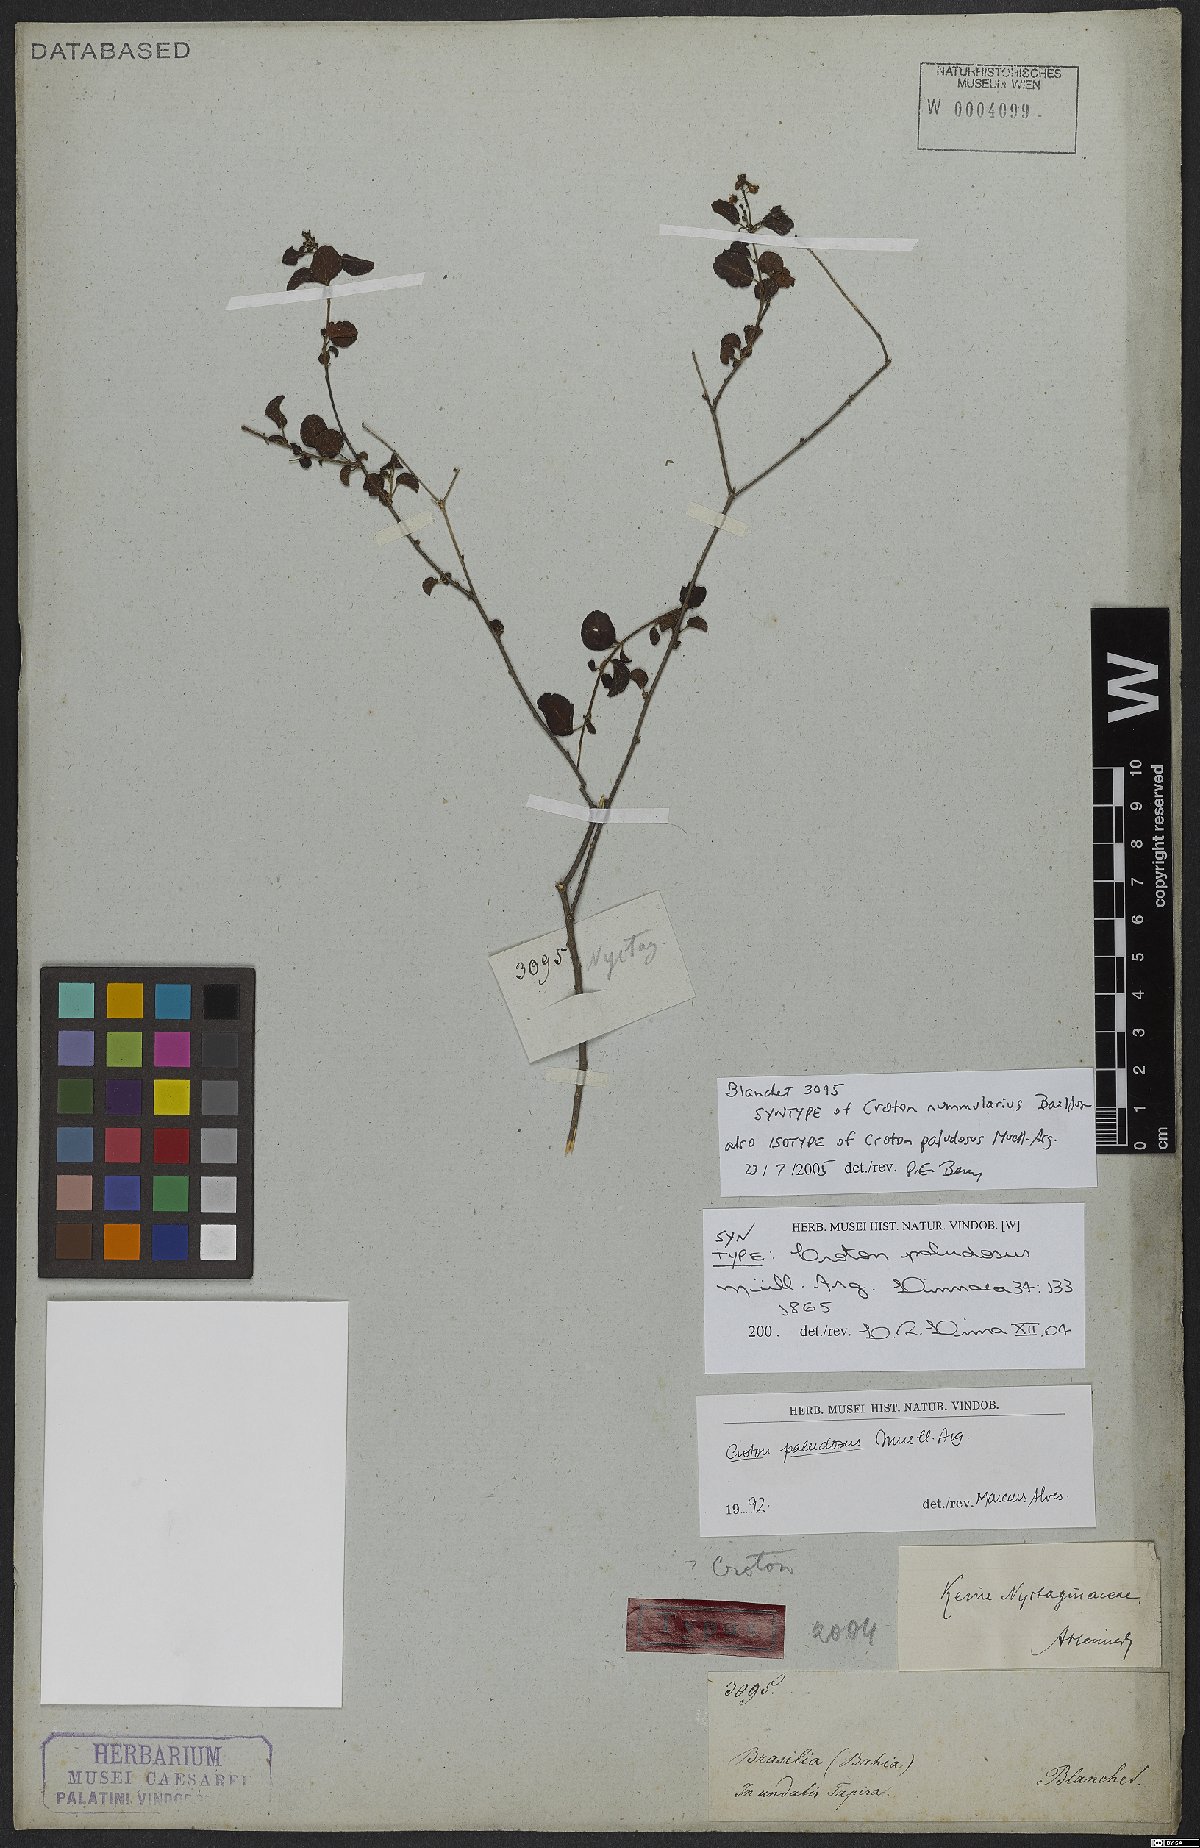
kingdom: Plantae
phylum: Tracheophyta
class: Magnoliopsida
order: Malpighiales
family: Euphorbiaceae
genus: Croton
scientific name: Croton paludosus
